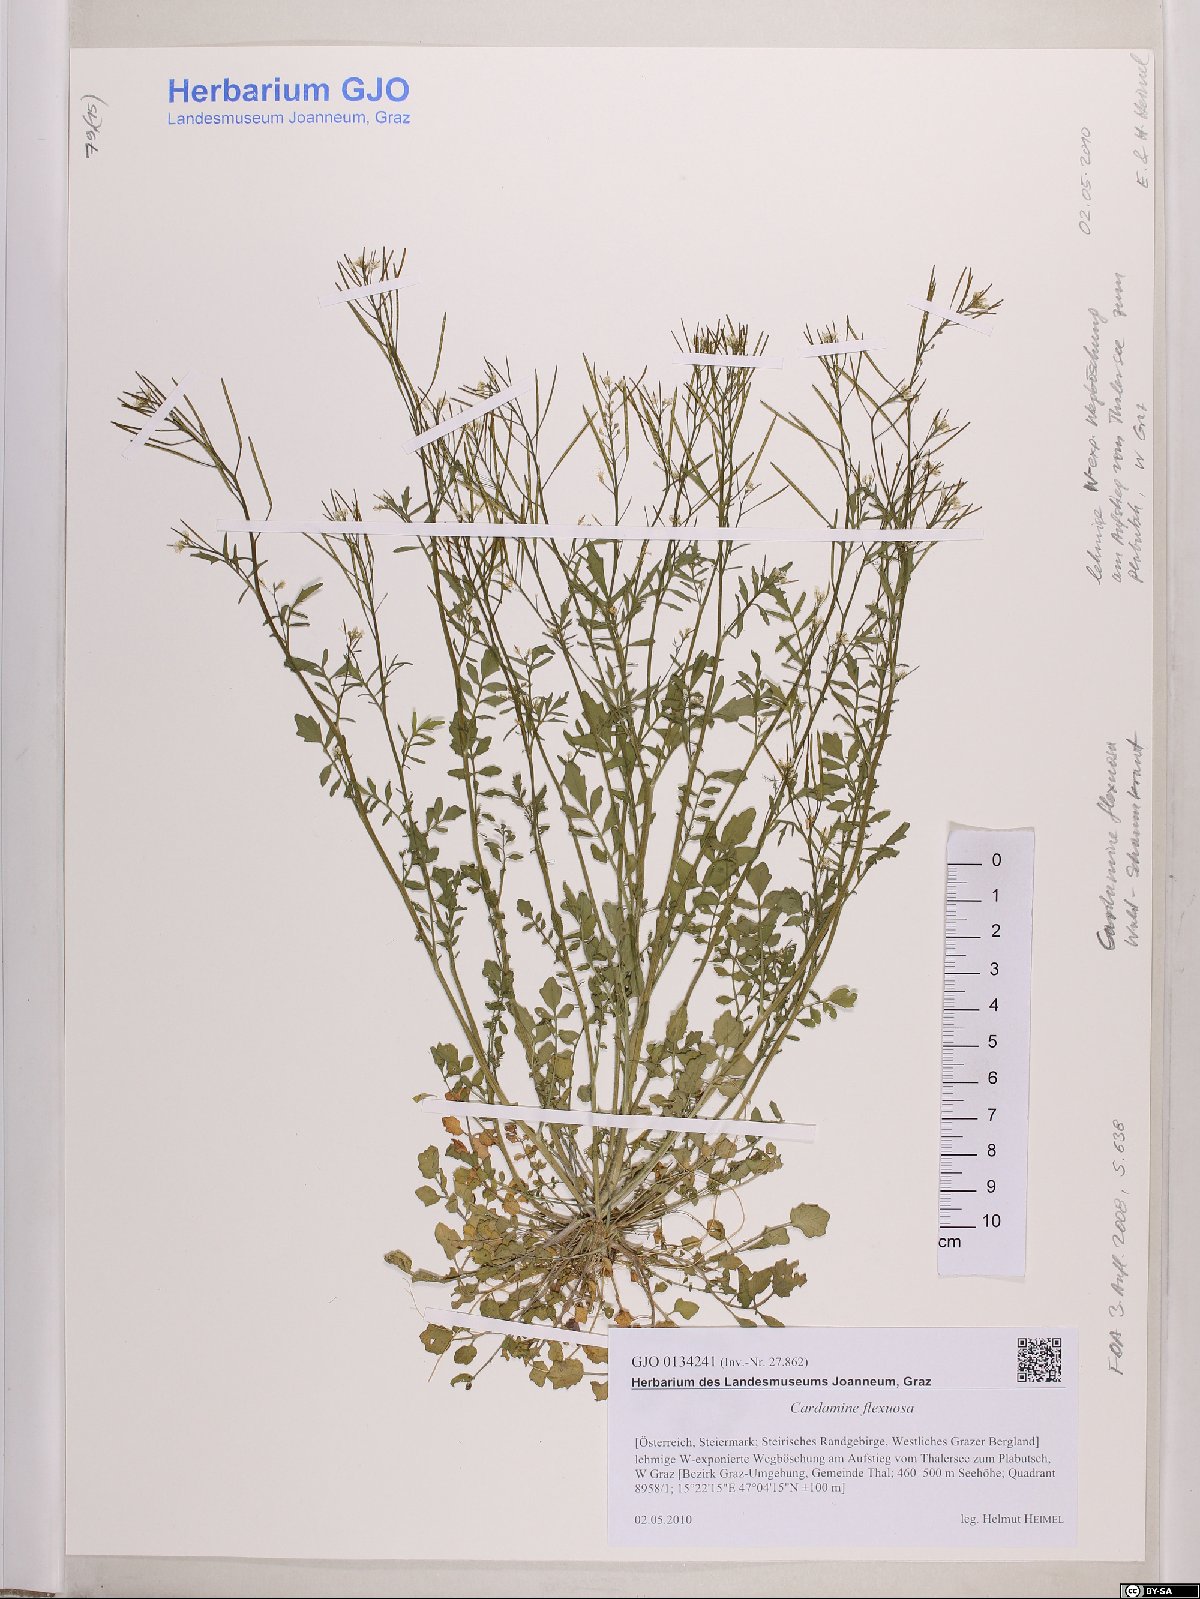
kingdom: Plantae
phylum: Tracheophyta
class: Magnoliopsida
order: Brassicales
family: Brassicaceae
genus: Cardamine
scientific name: Cardamine flexuosa
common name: Woodland bittercress
